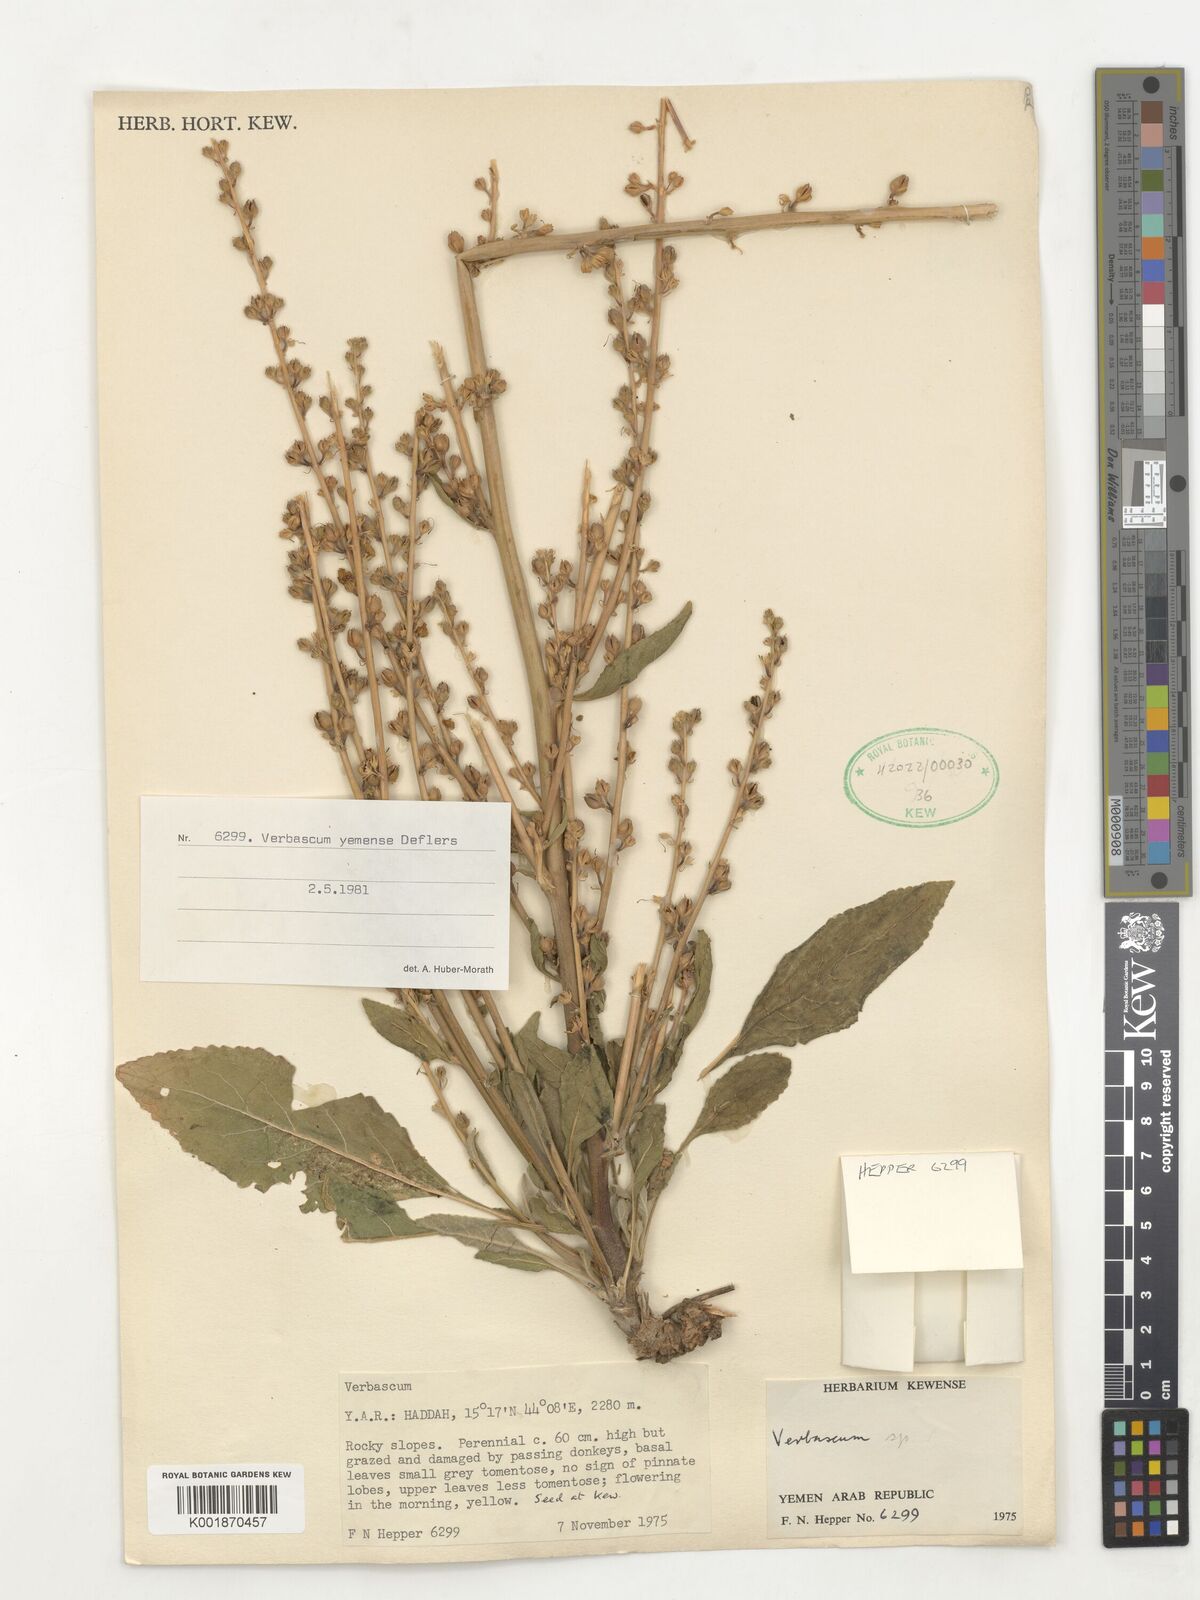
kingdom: Plantae
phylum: Tracheophyta
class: Magnoliopsida
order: Lamiales
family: Scrophulariaceae
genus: Verbascum
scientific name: Verbascum
